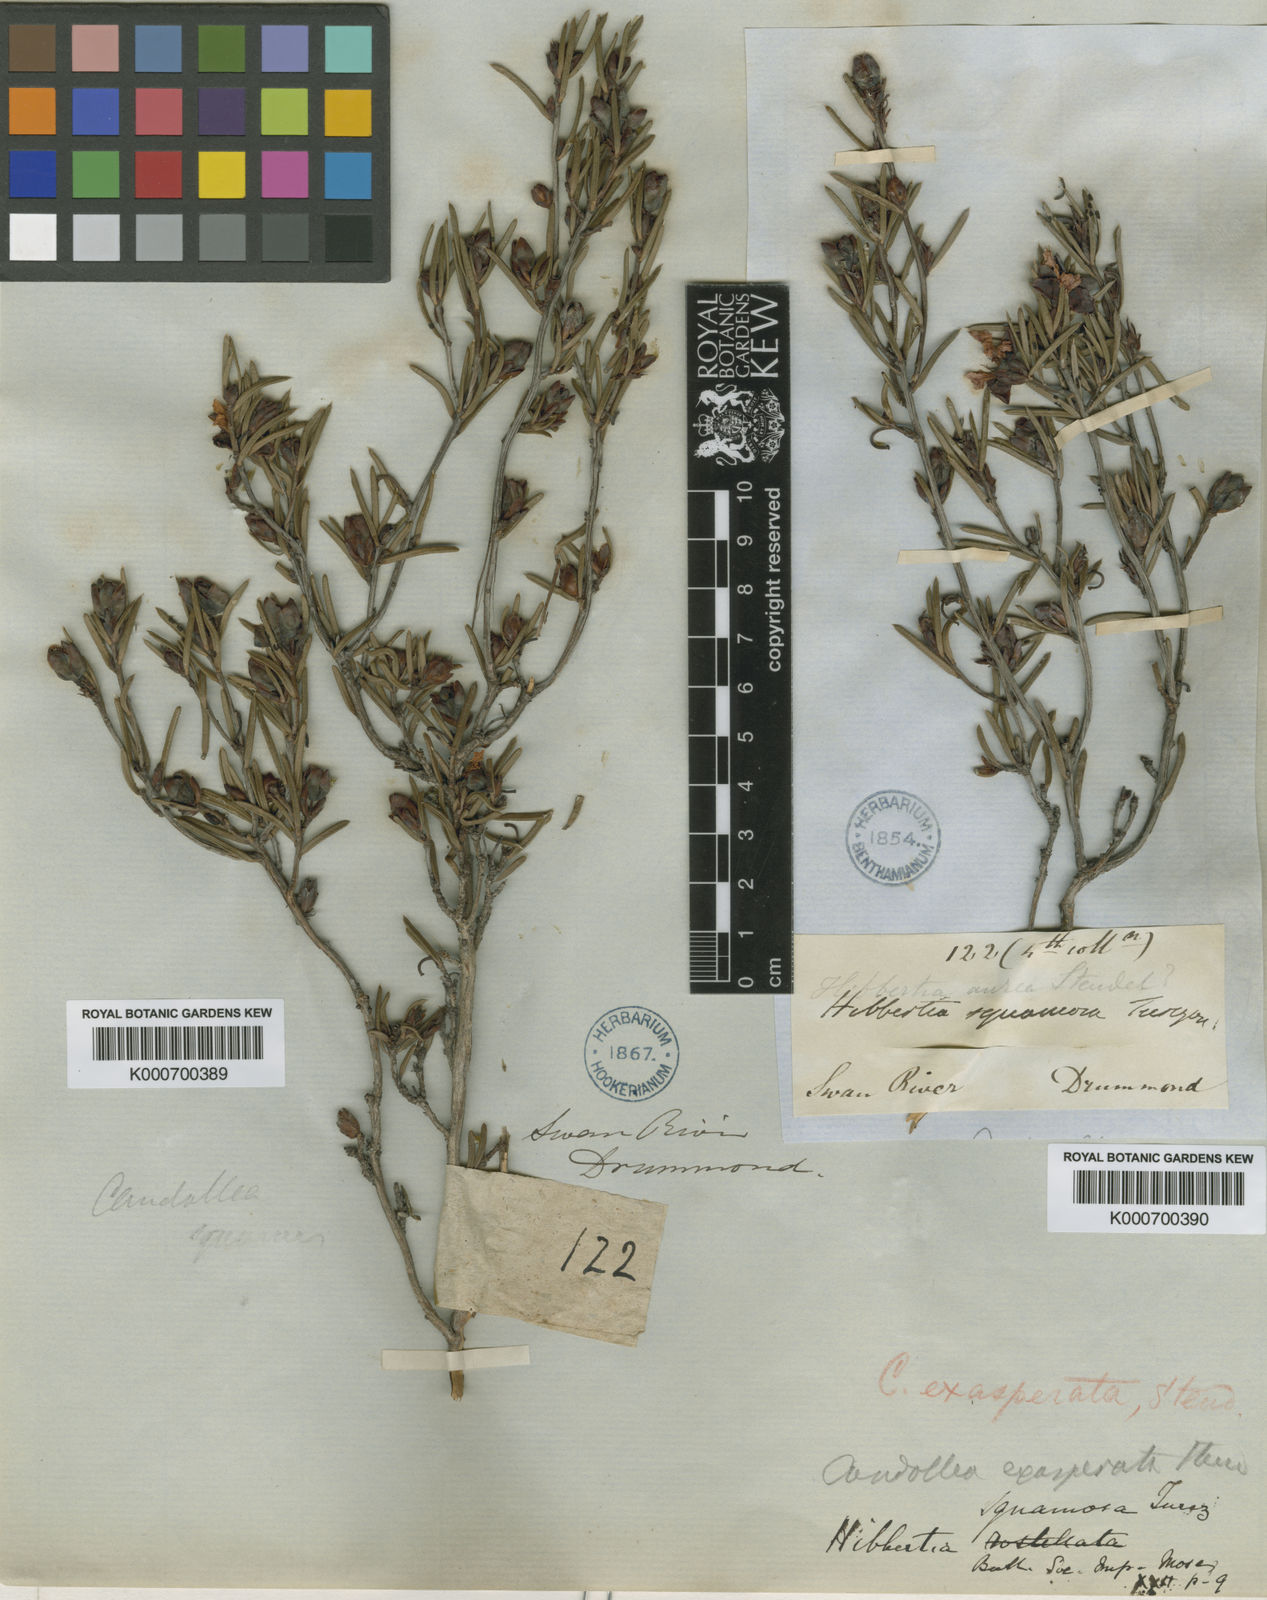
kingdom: Plantae
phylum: Tracheophyta
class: Magnoliopsida
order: Dilleniales
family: Dilleniaceae
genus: Hibbertia
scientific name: Hibbertia exasperata
